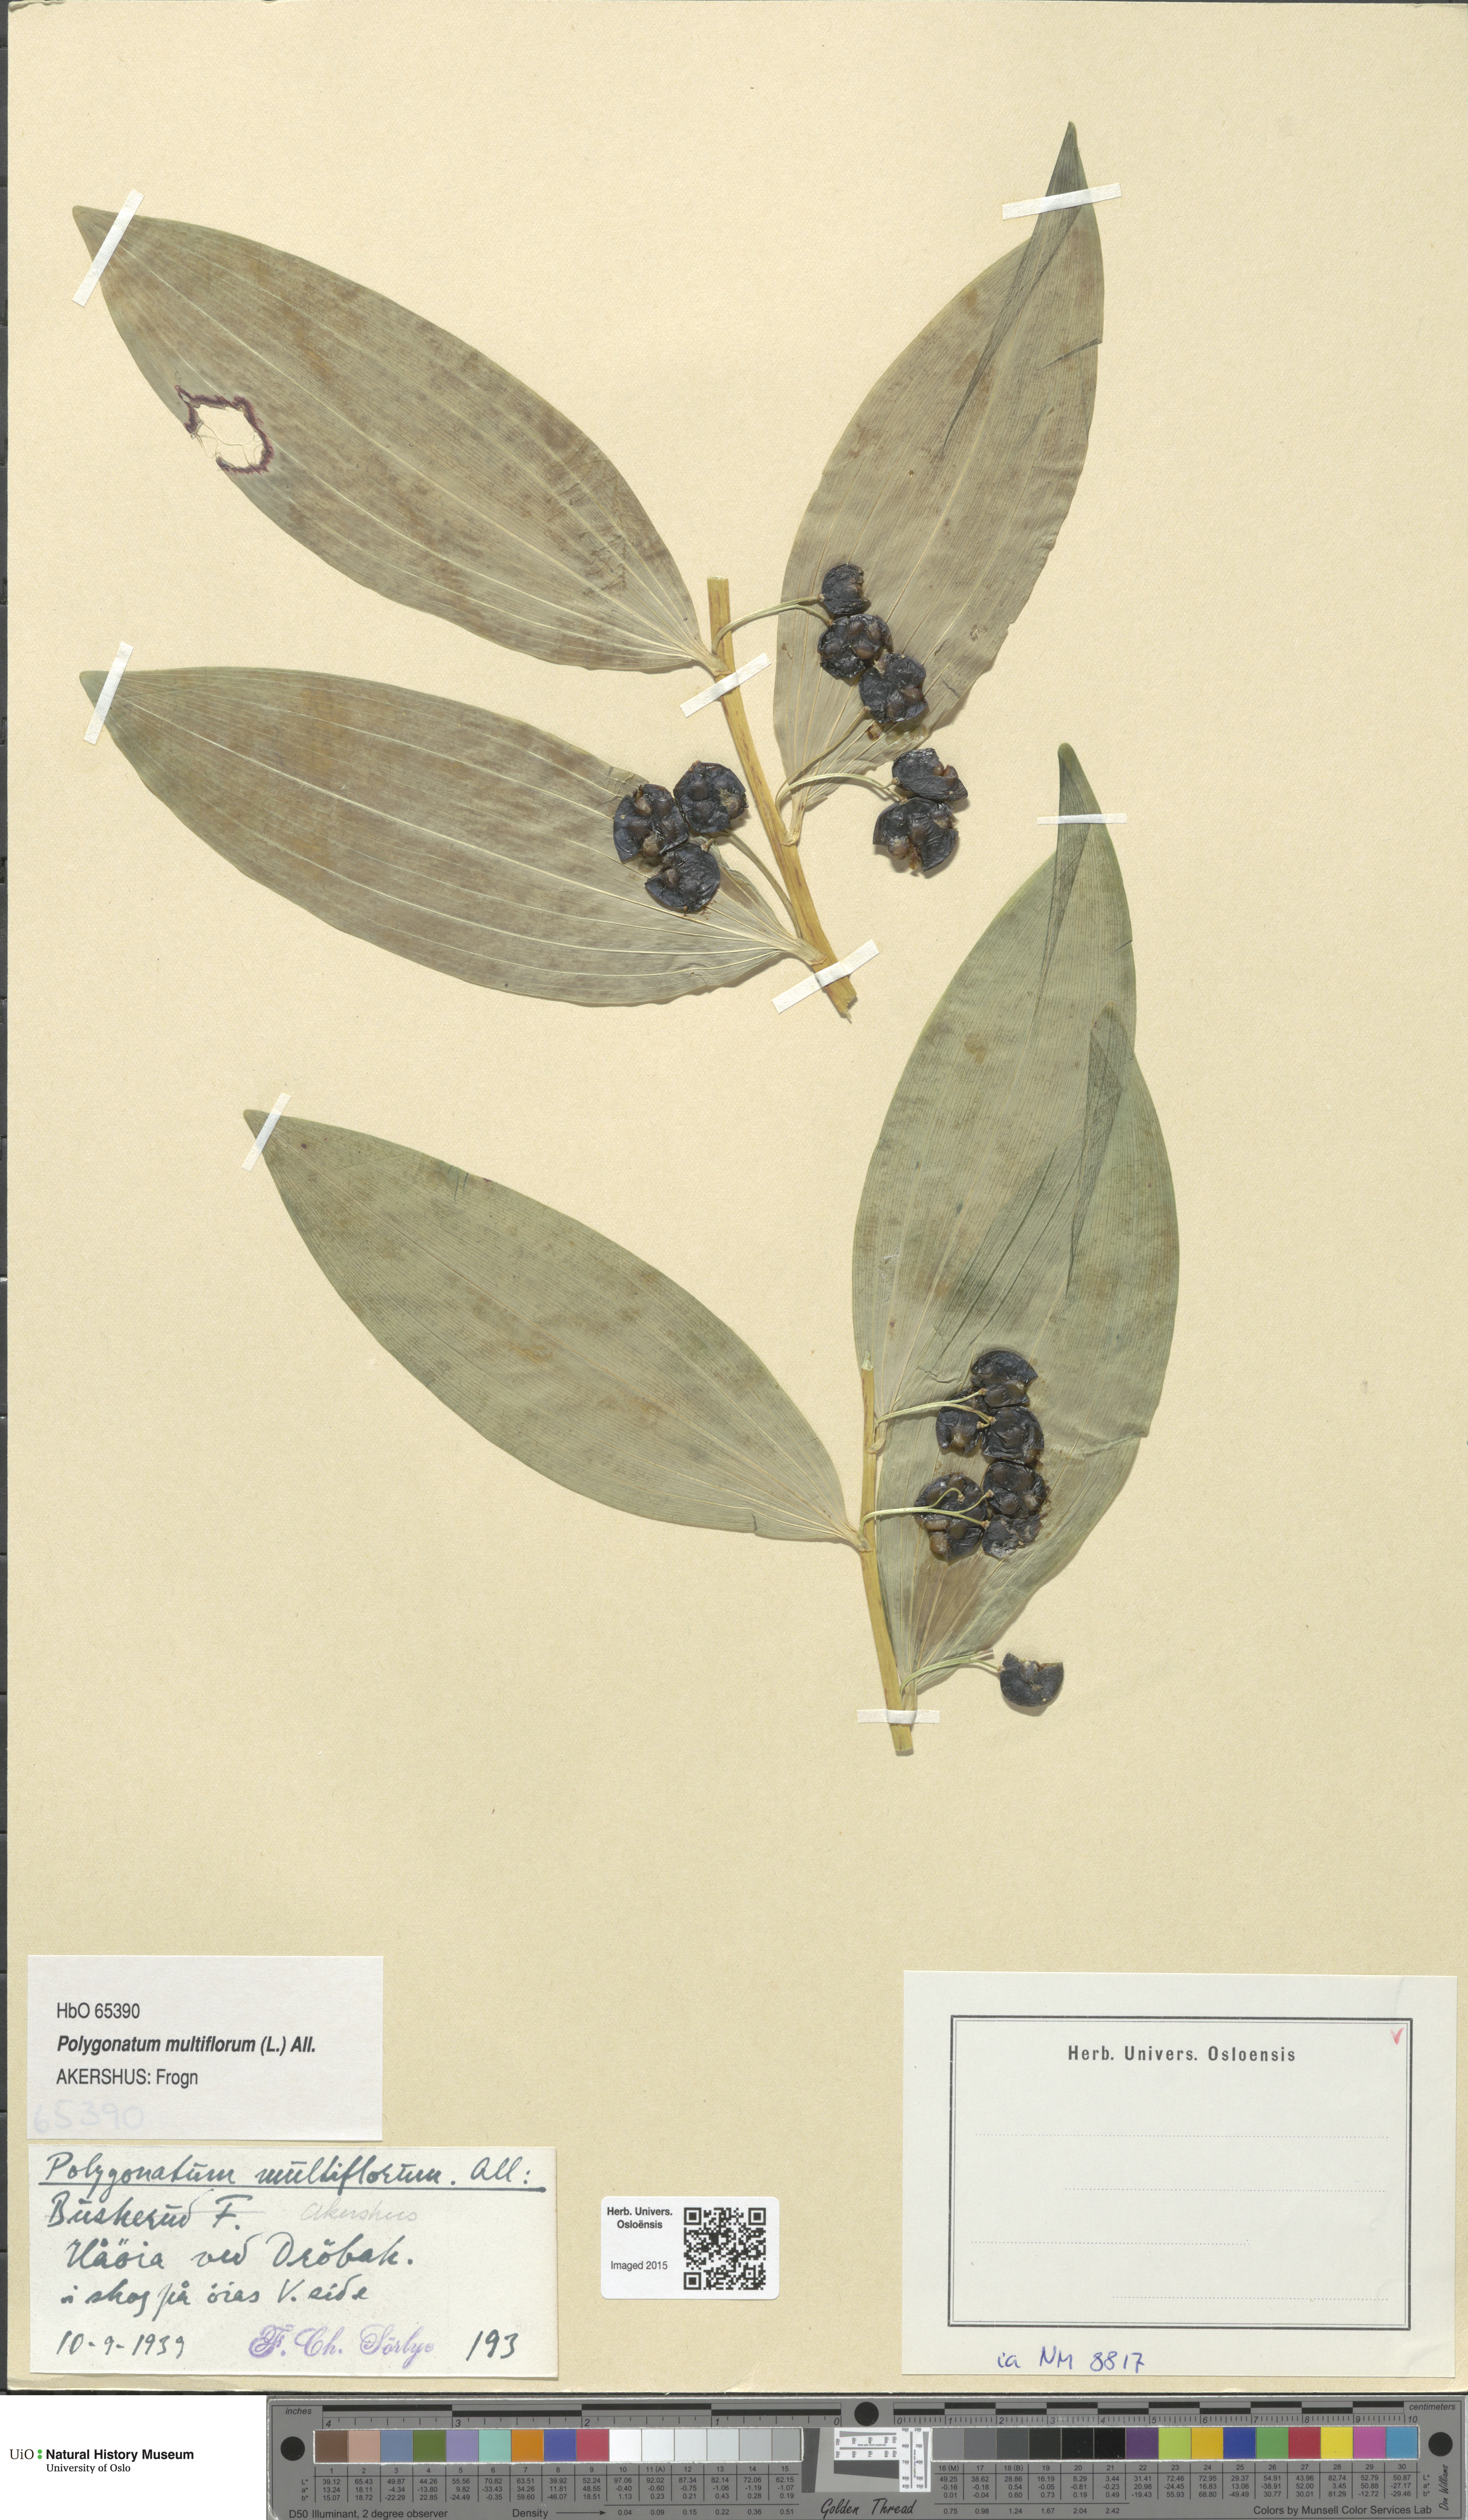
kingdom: Plantae
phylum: Tracheophyta
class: Liliopsida
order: Asparagales
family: Asparagaceae
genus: Polygonatum
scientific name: Polygonatum multiflorum
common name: Solomon's-seal
